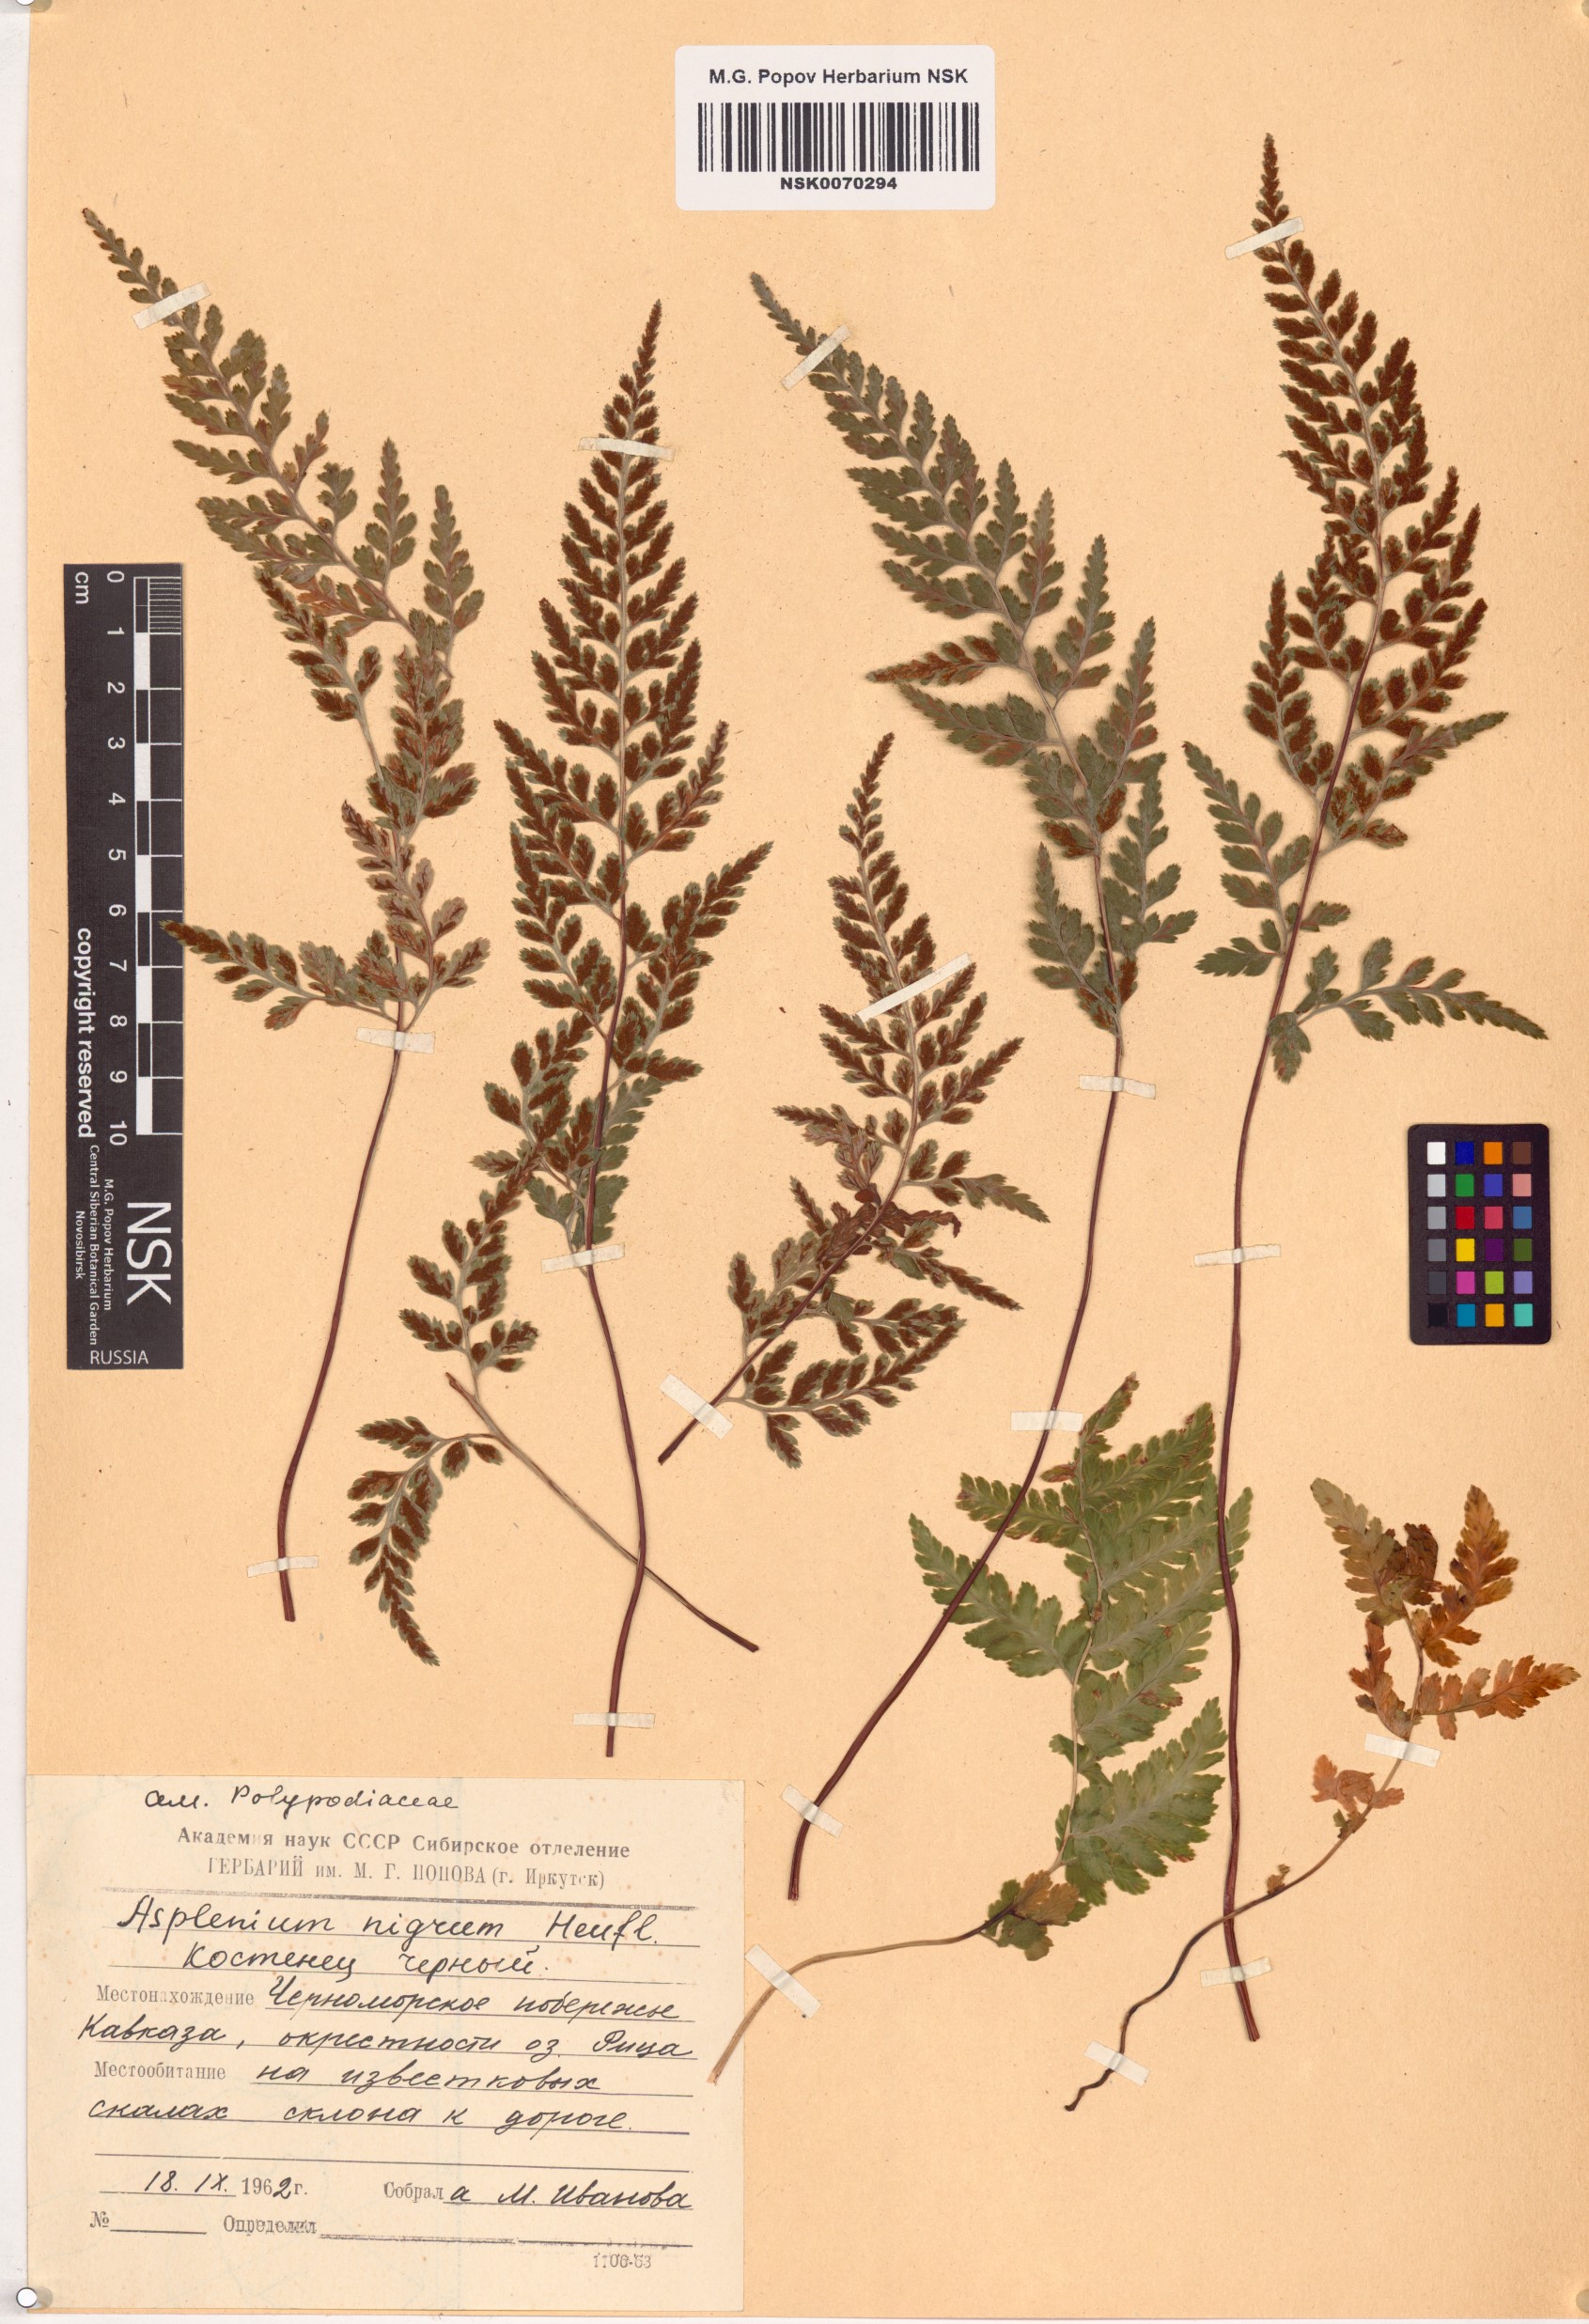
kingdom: Plantae
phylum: Tracheophyta
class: Polypodiopsida
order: Polypodiales
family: Aspleniaceae
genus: Asplenium
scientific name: Asplenium adiantum-nigrum
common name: Black spleenwort
